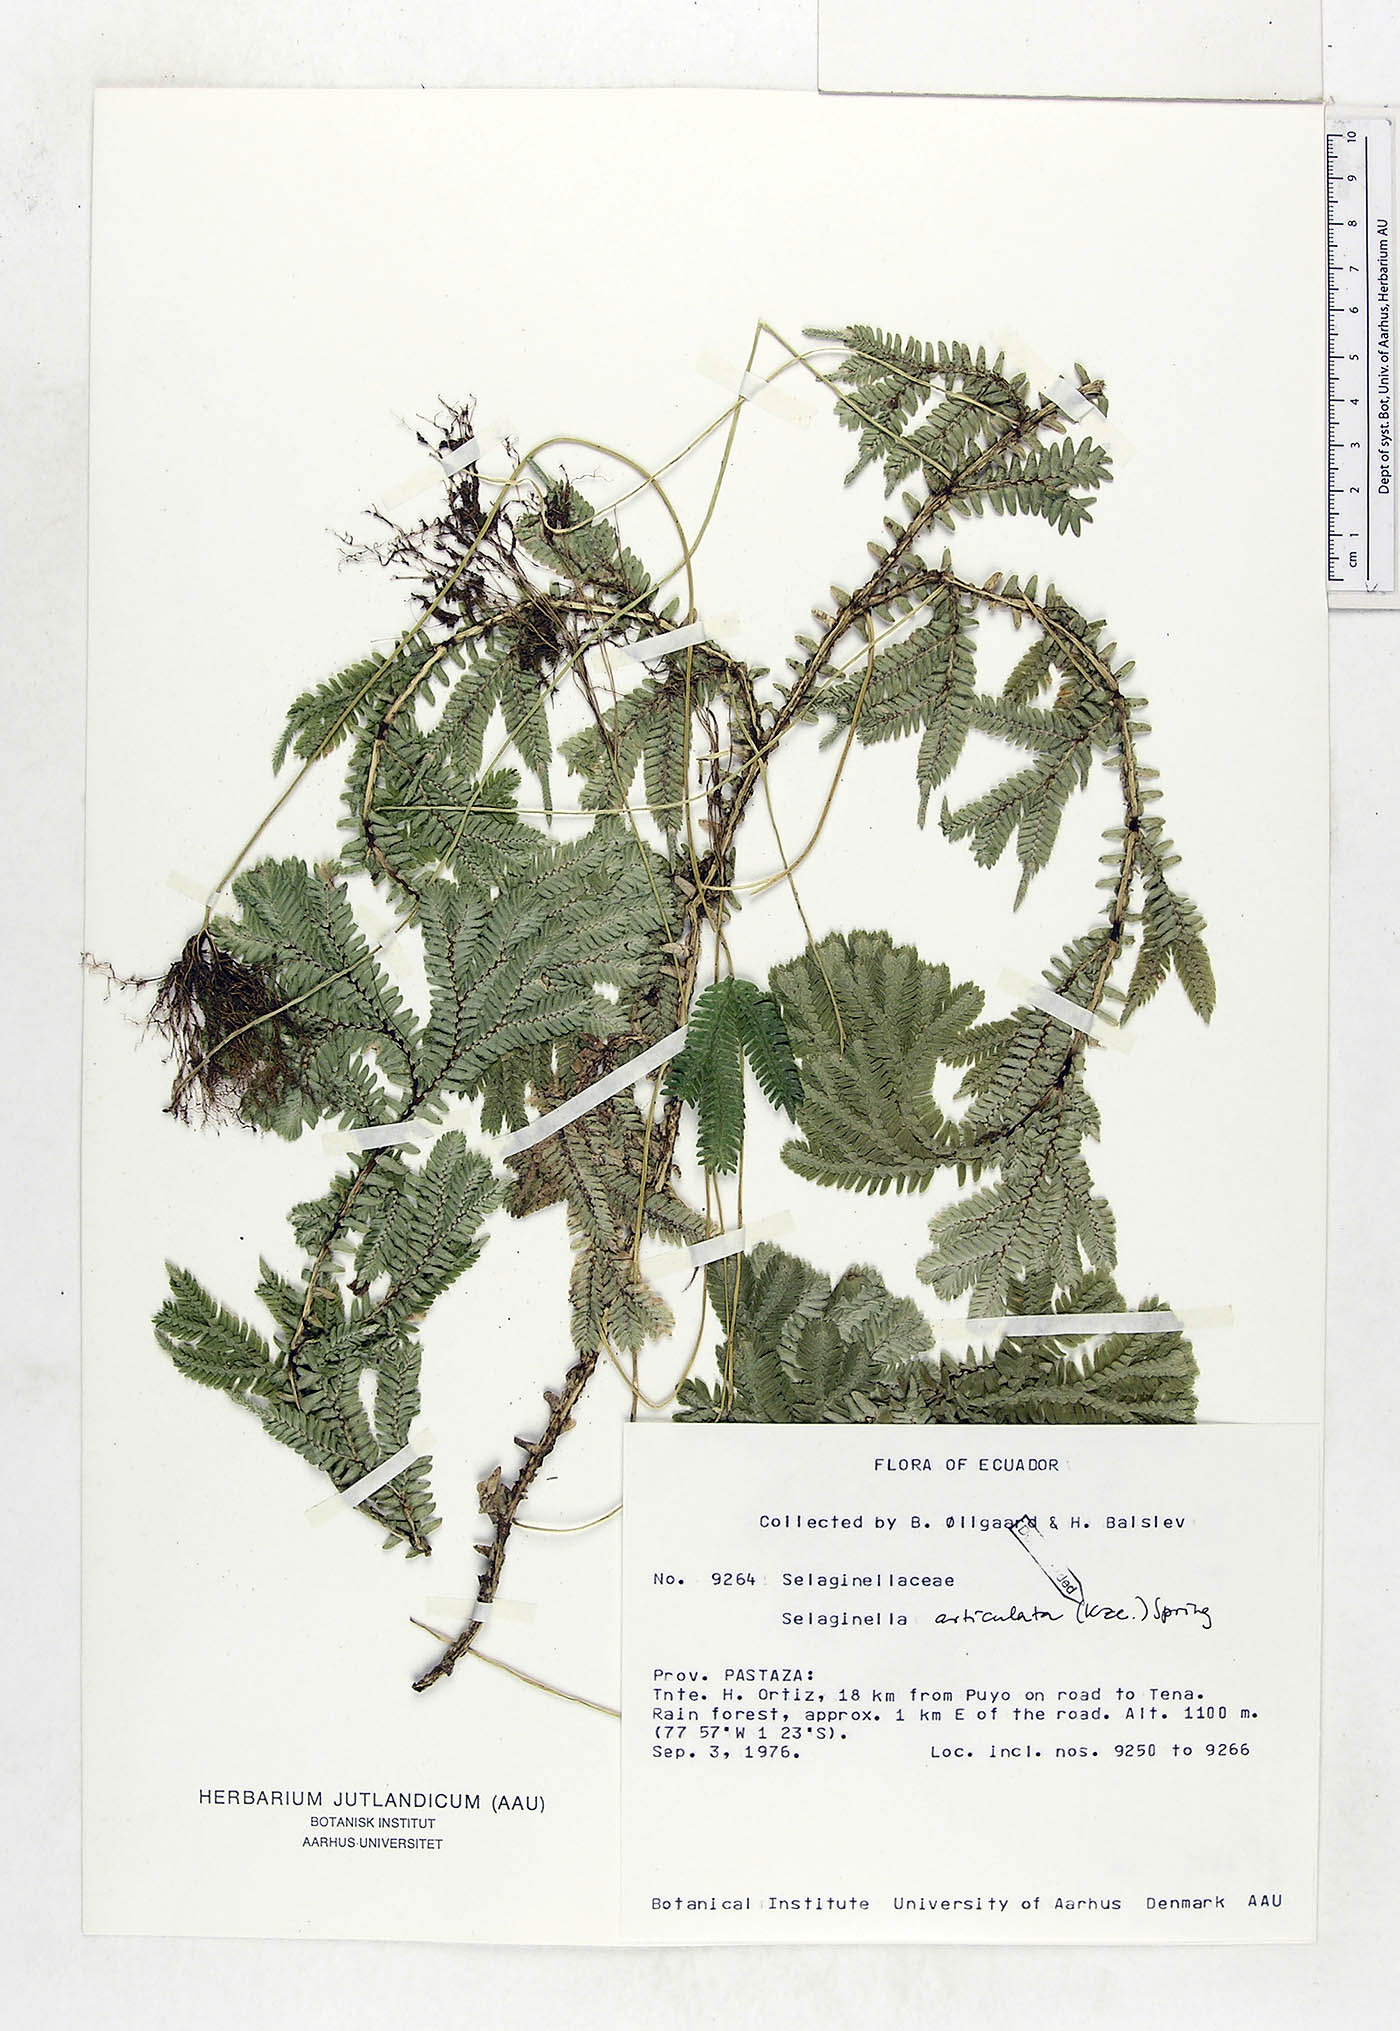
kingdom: Plantae
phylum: Tracheophyta
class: Lycopodiopsida
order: Selaginellales
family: Selaginellaceae
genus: Selaginella
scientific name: Selaginella articulata
